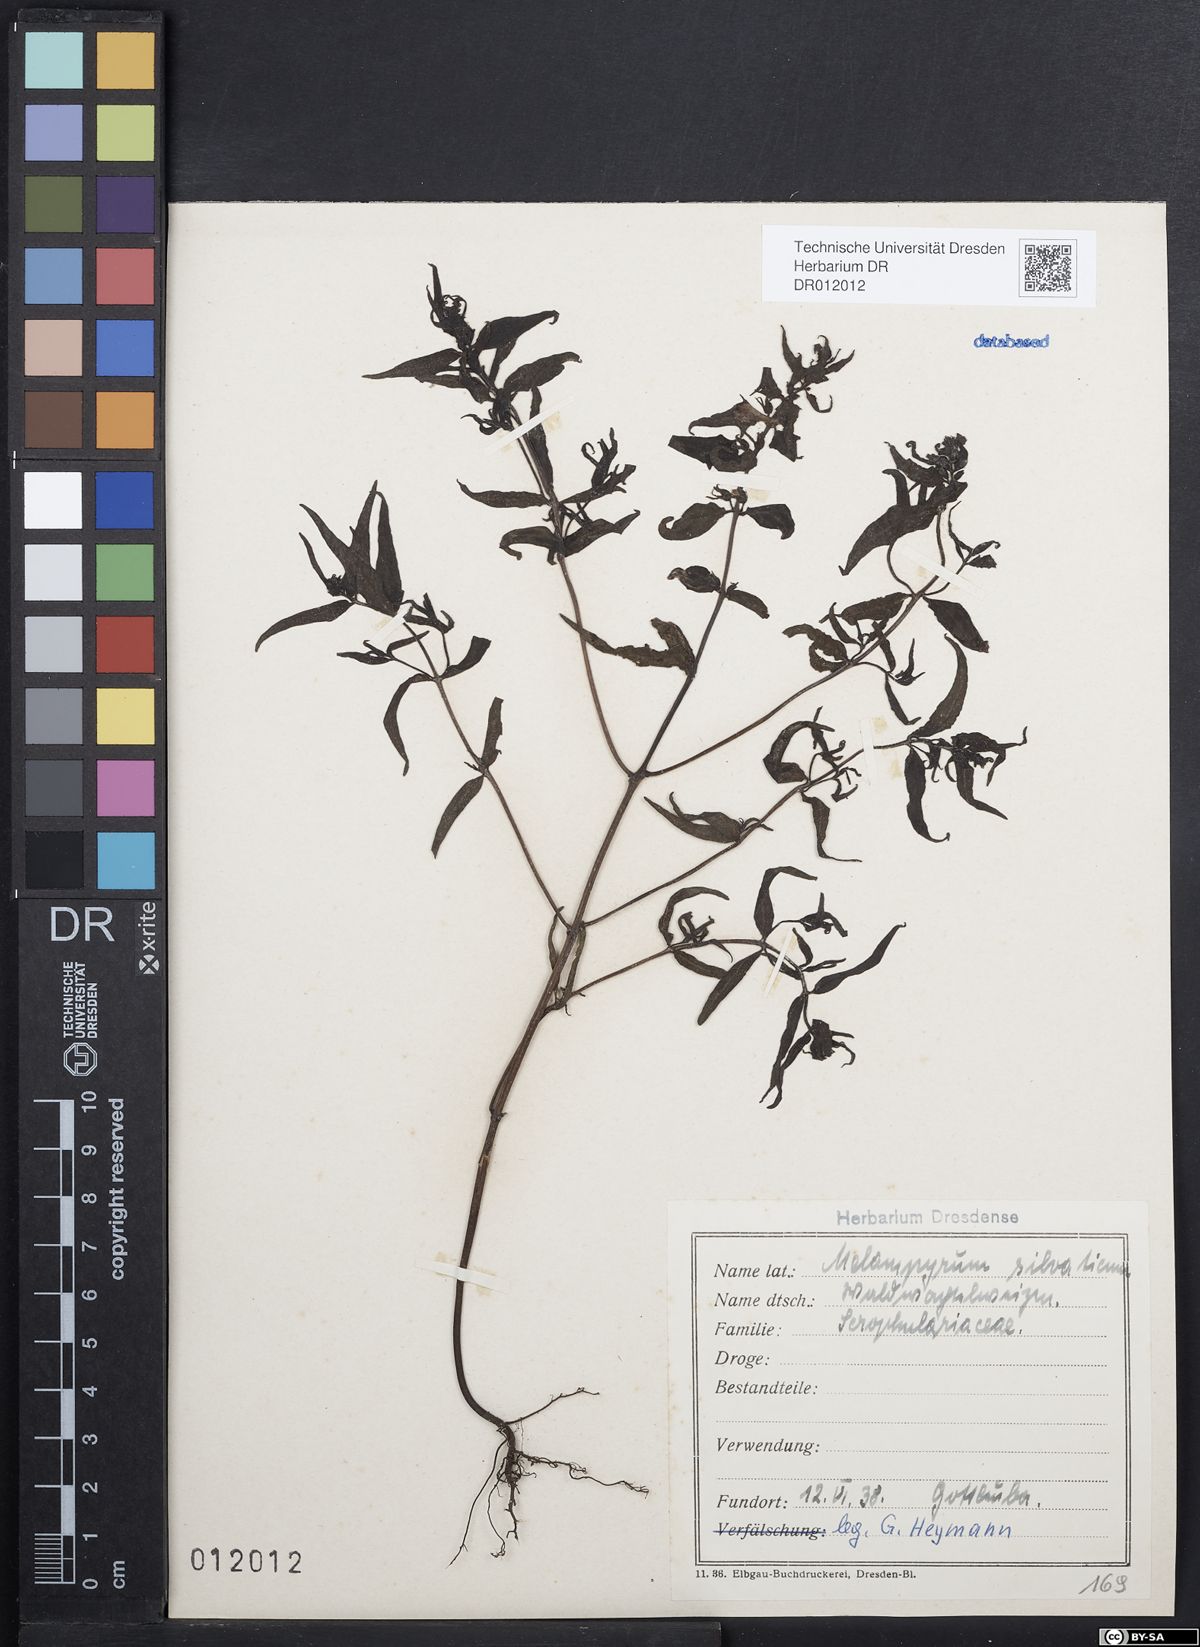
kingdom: Plantae
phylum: Tracheophyta
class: Magnoliopsida
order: Lamiales
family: Orobanchaceae
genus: Melampyrum
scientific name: Melampyrum sylvaticum
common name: Small cow-wheat
